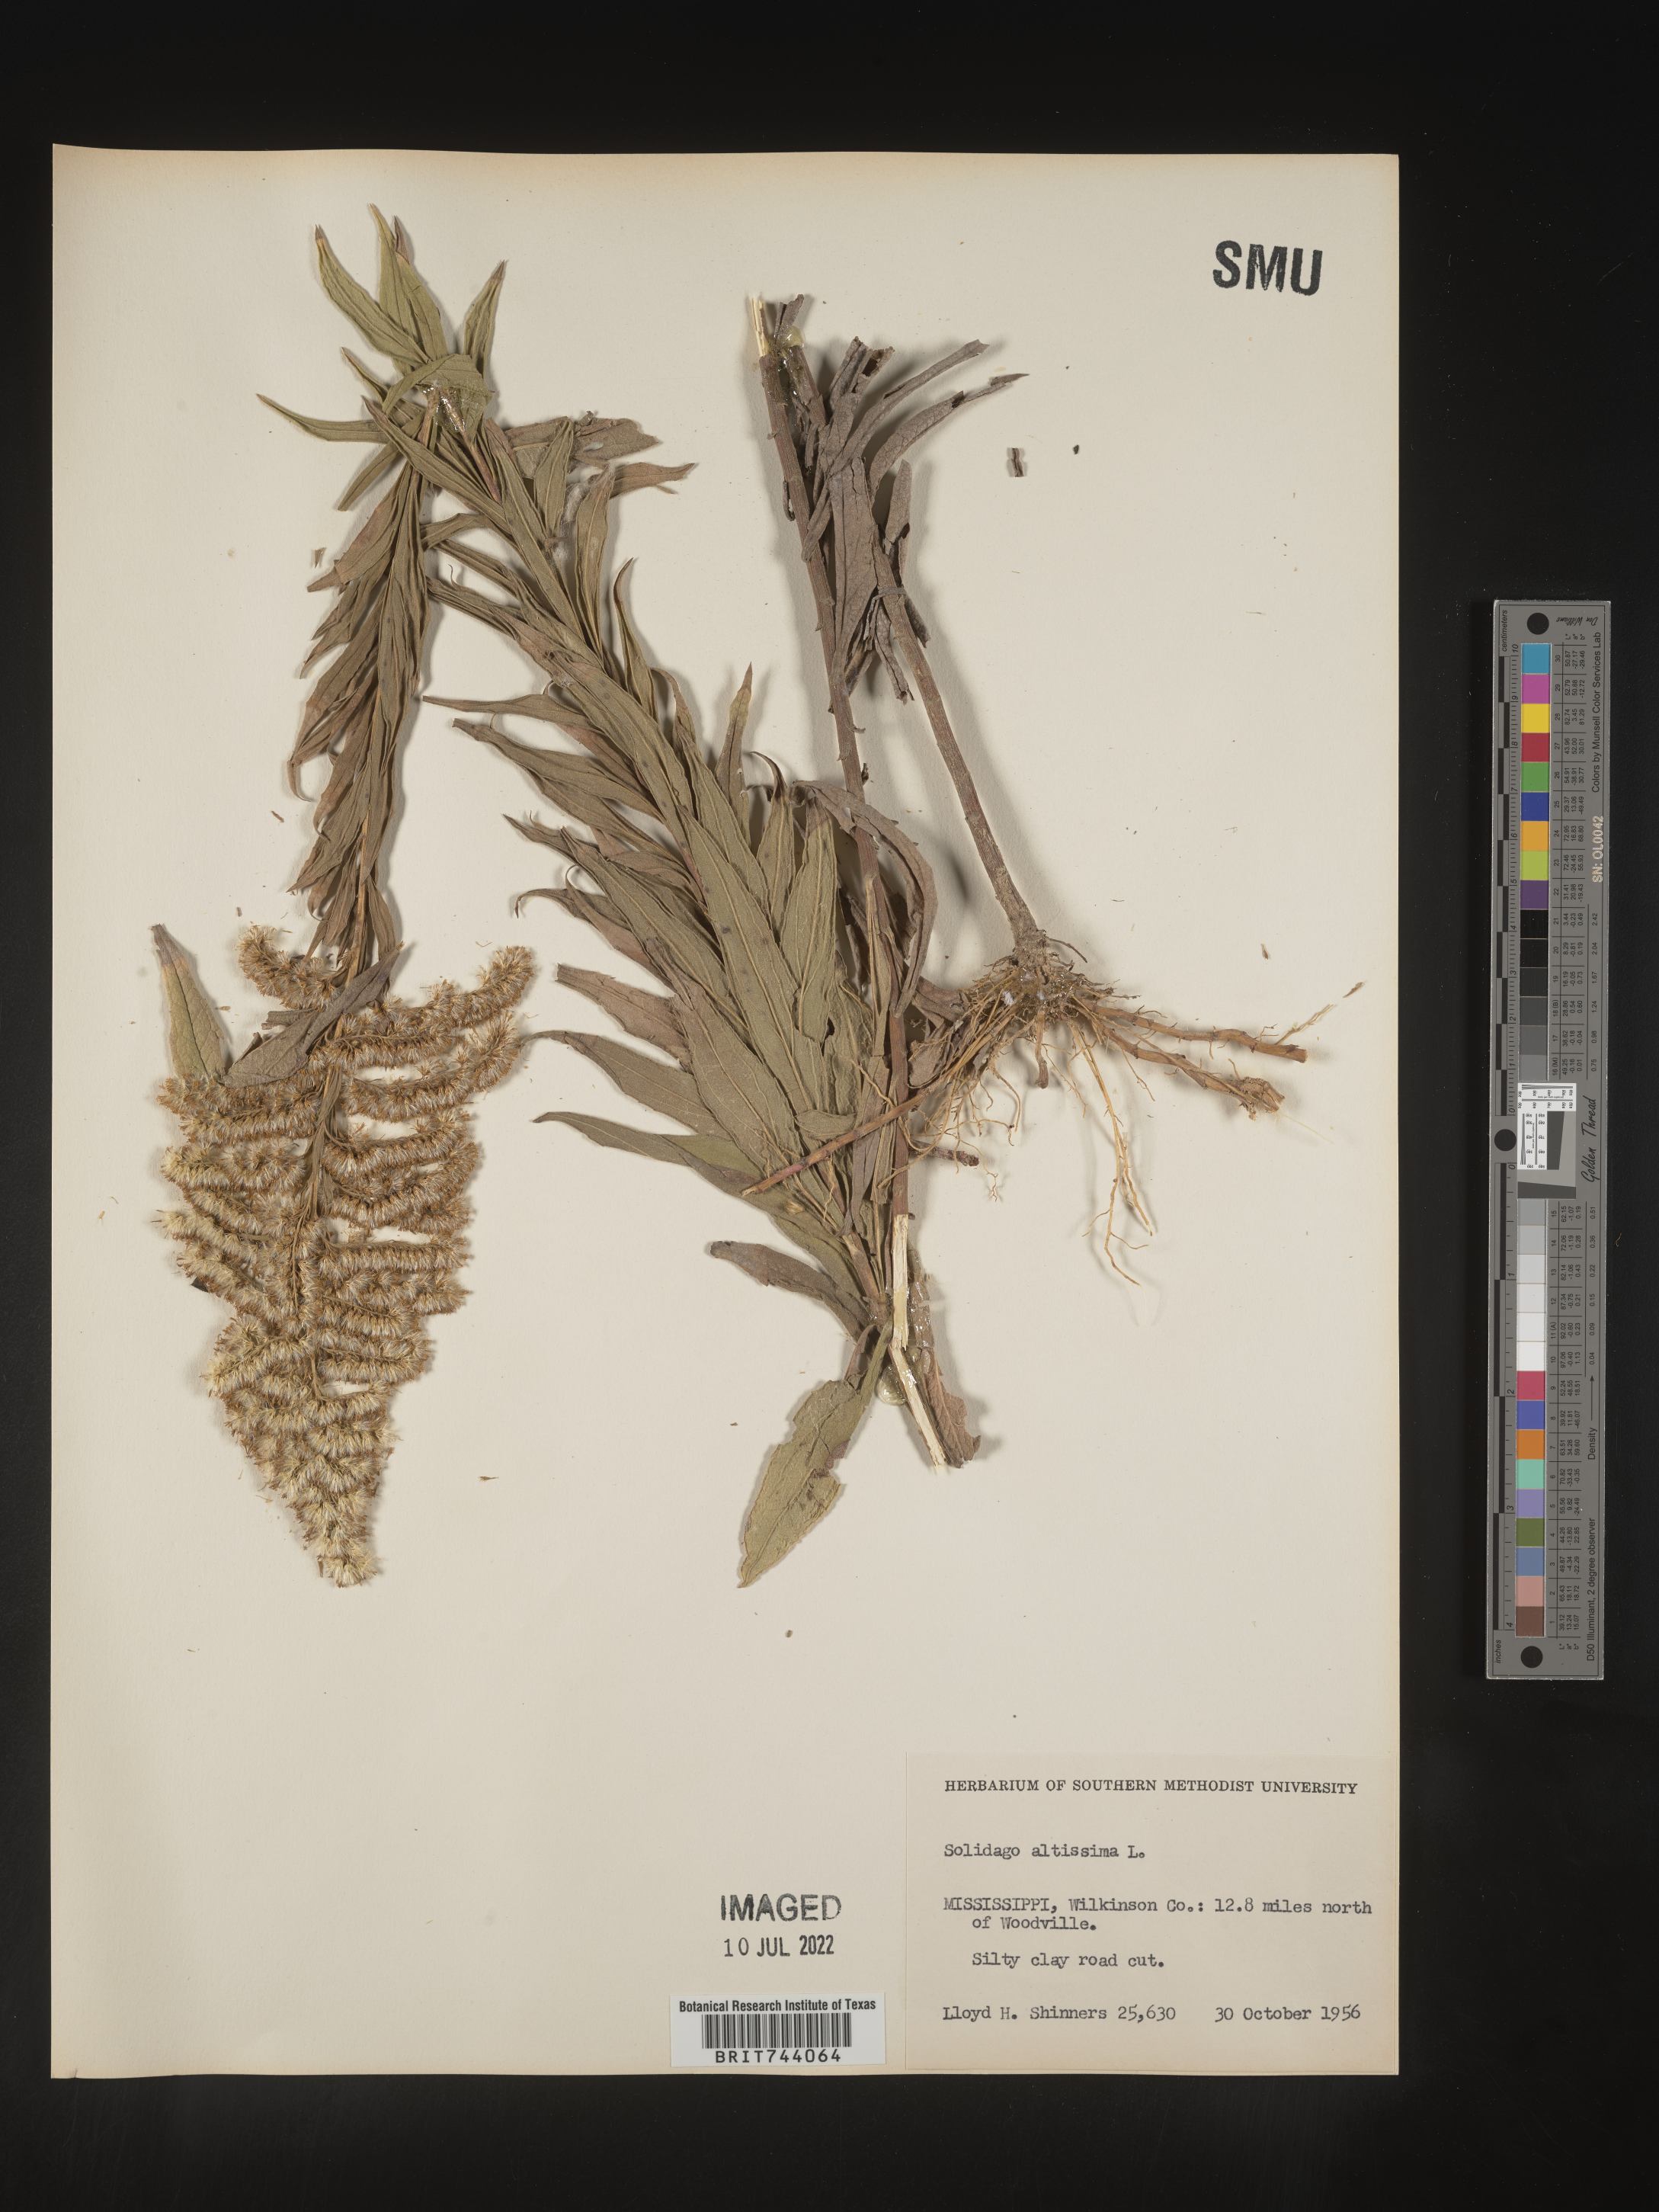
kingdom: Plantae
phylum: Tracheophyta
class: Magnoliopsida
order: Asterales
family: Asteraceae
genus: Solidago
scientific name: Solidago altissima
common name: Late goldenrod
